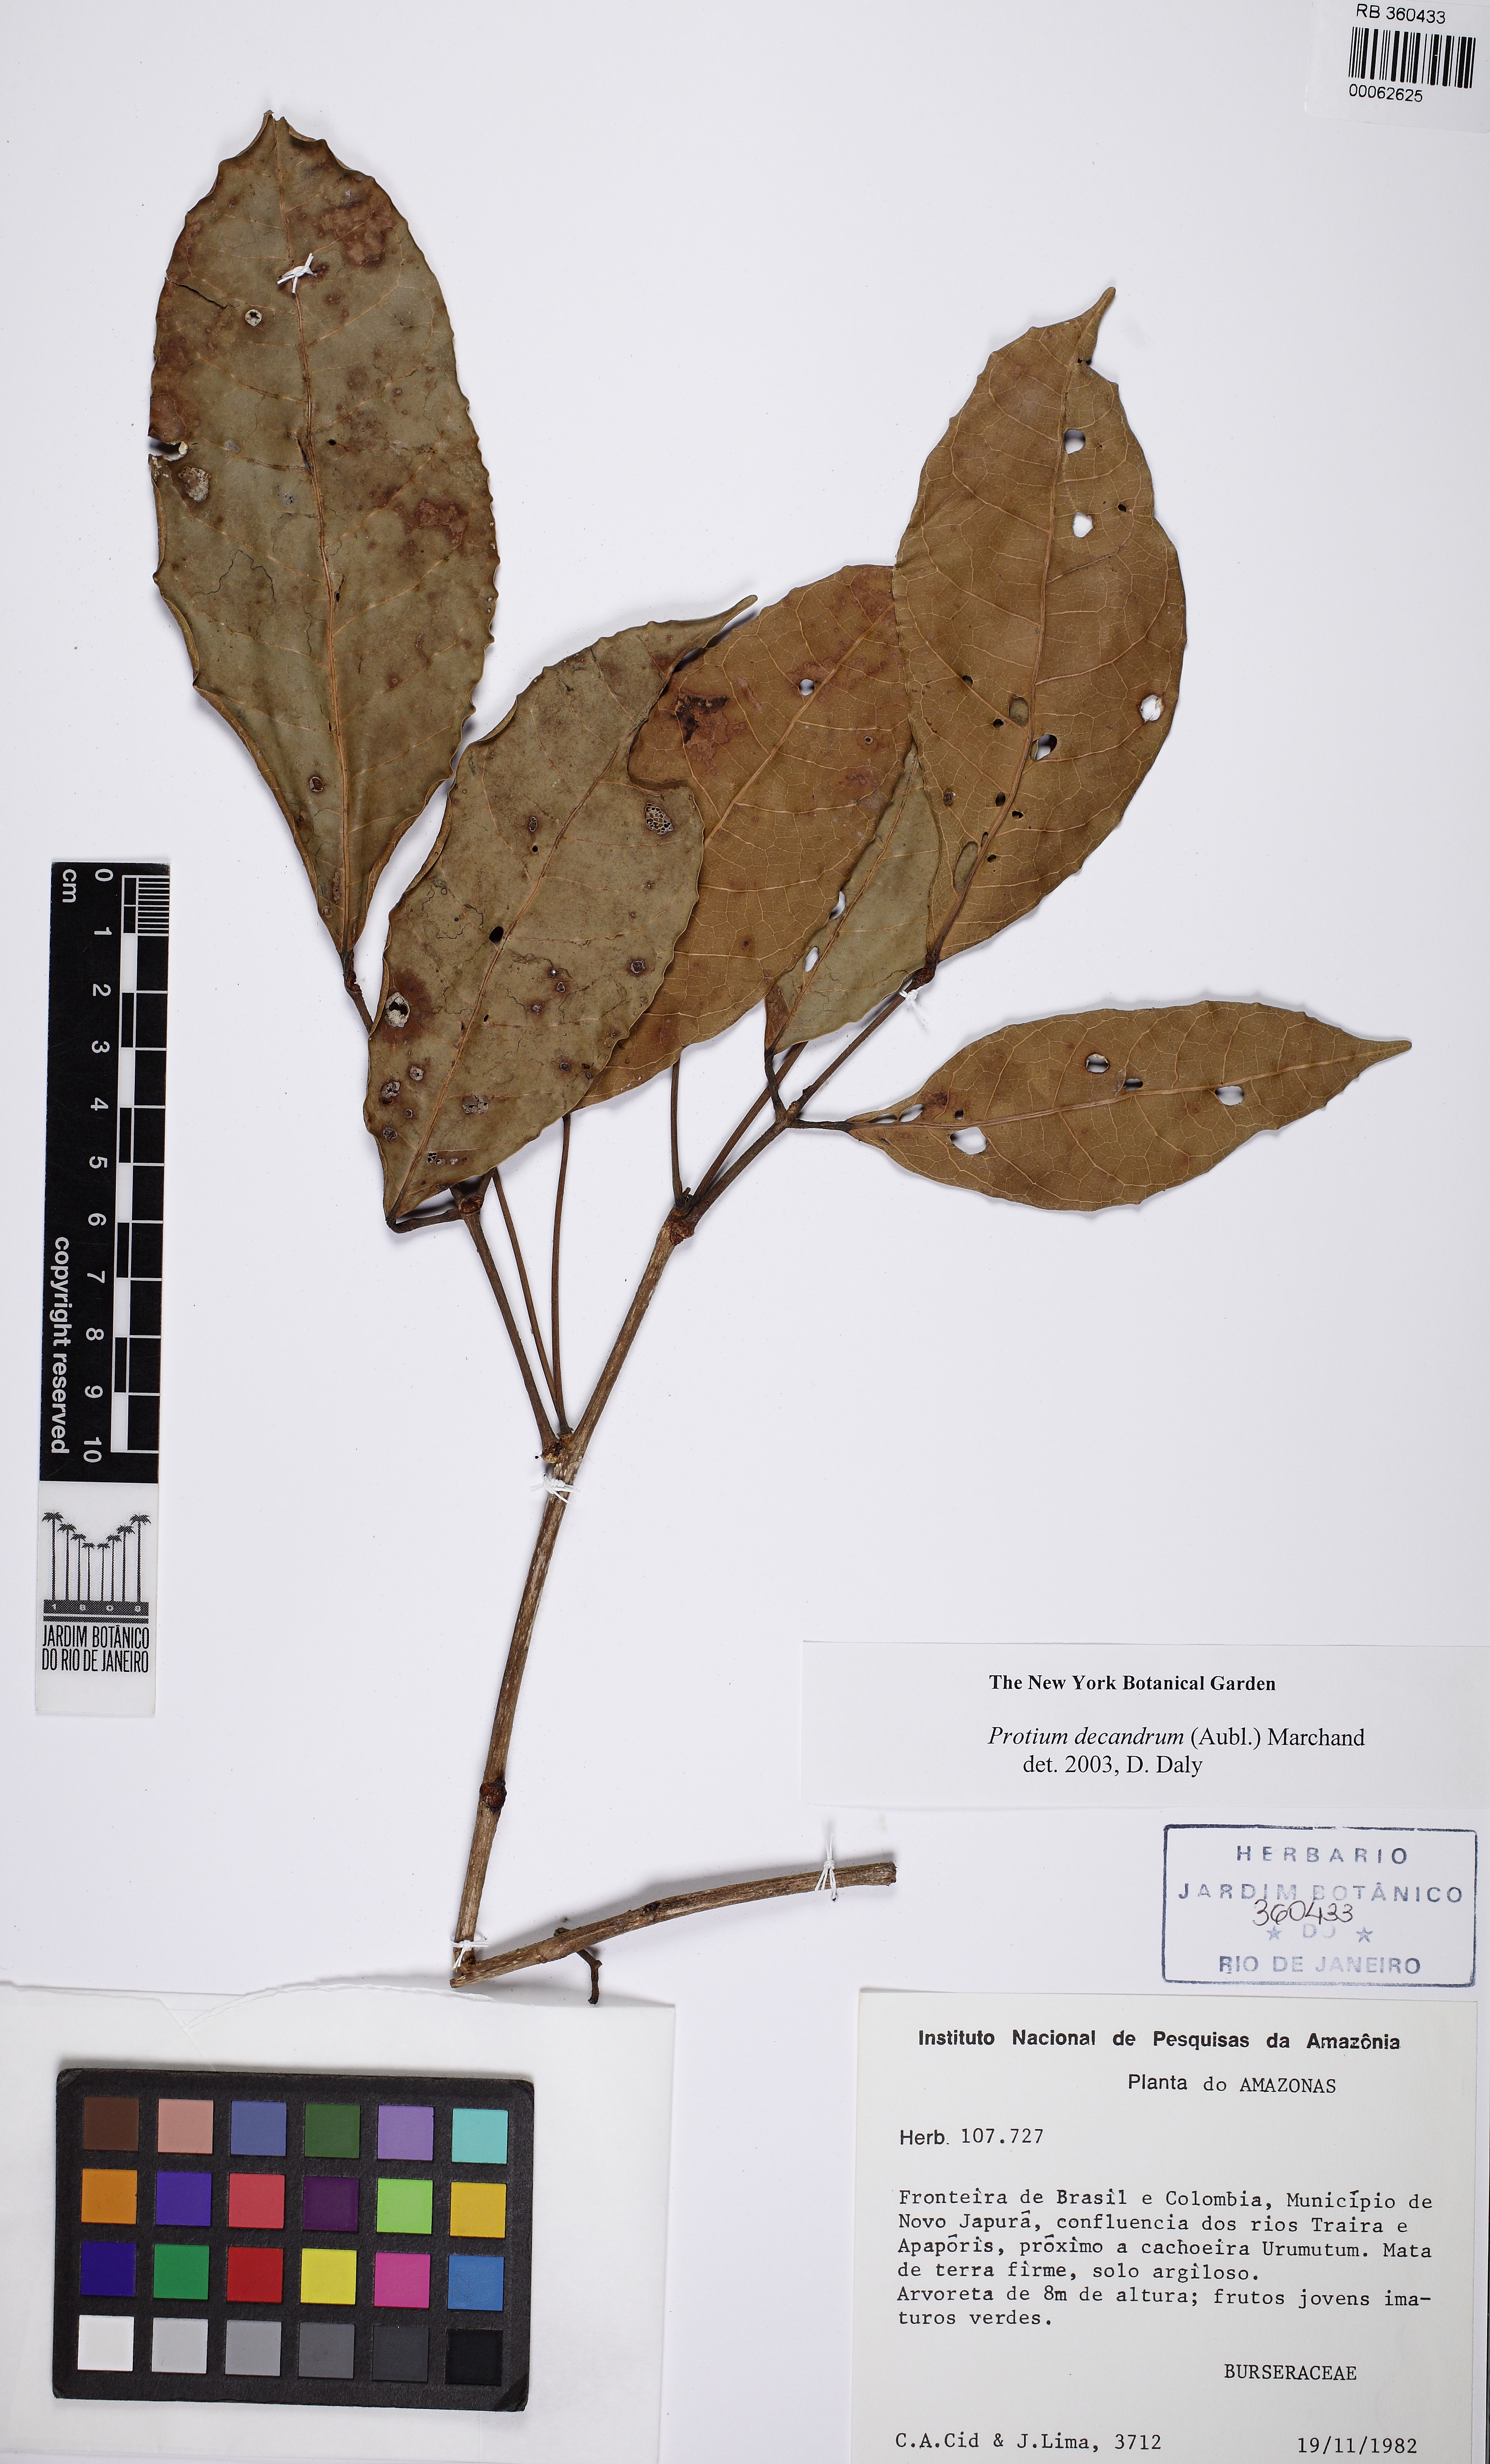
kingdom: Plantae
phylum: Tracheophyta
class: Magnoliopsida
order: Sapindales
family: Burseraceae
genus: Protium
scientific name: Protium decandrum
